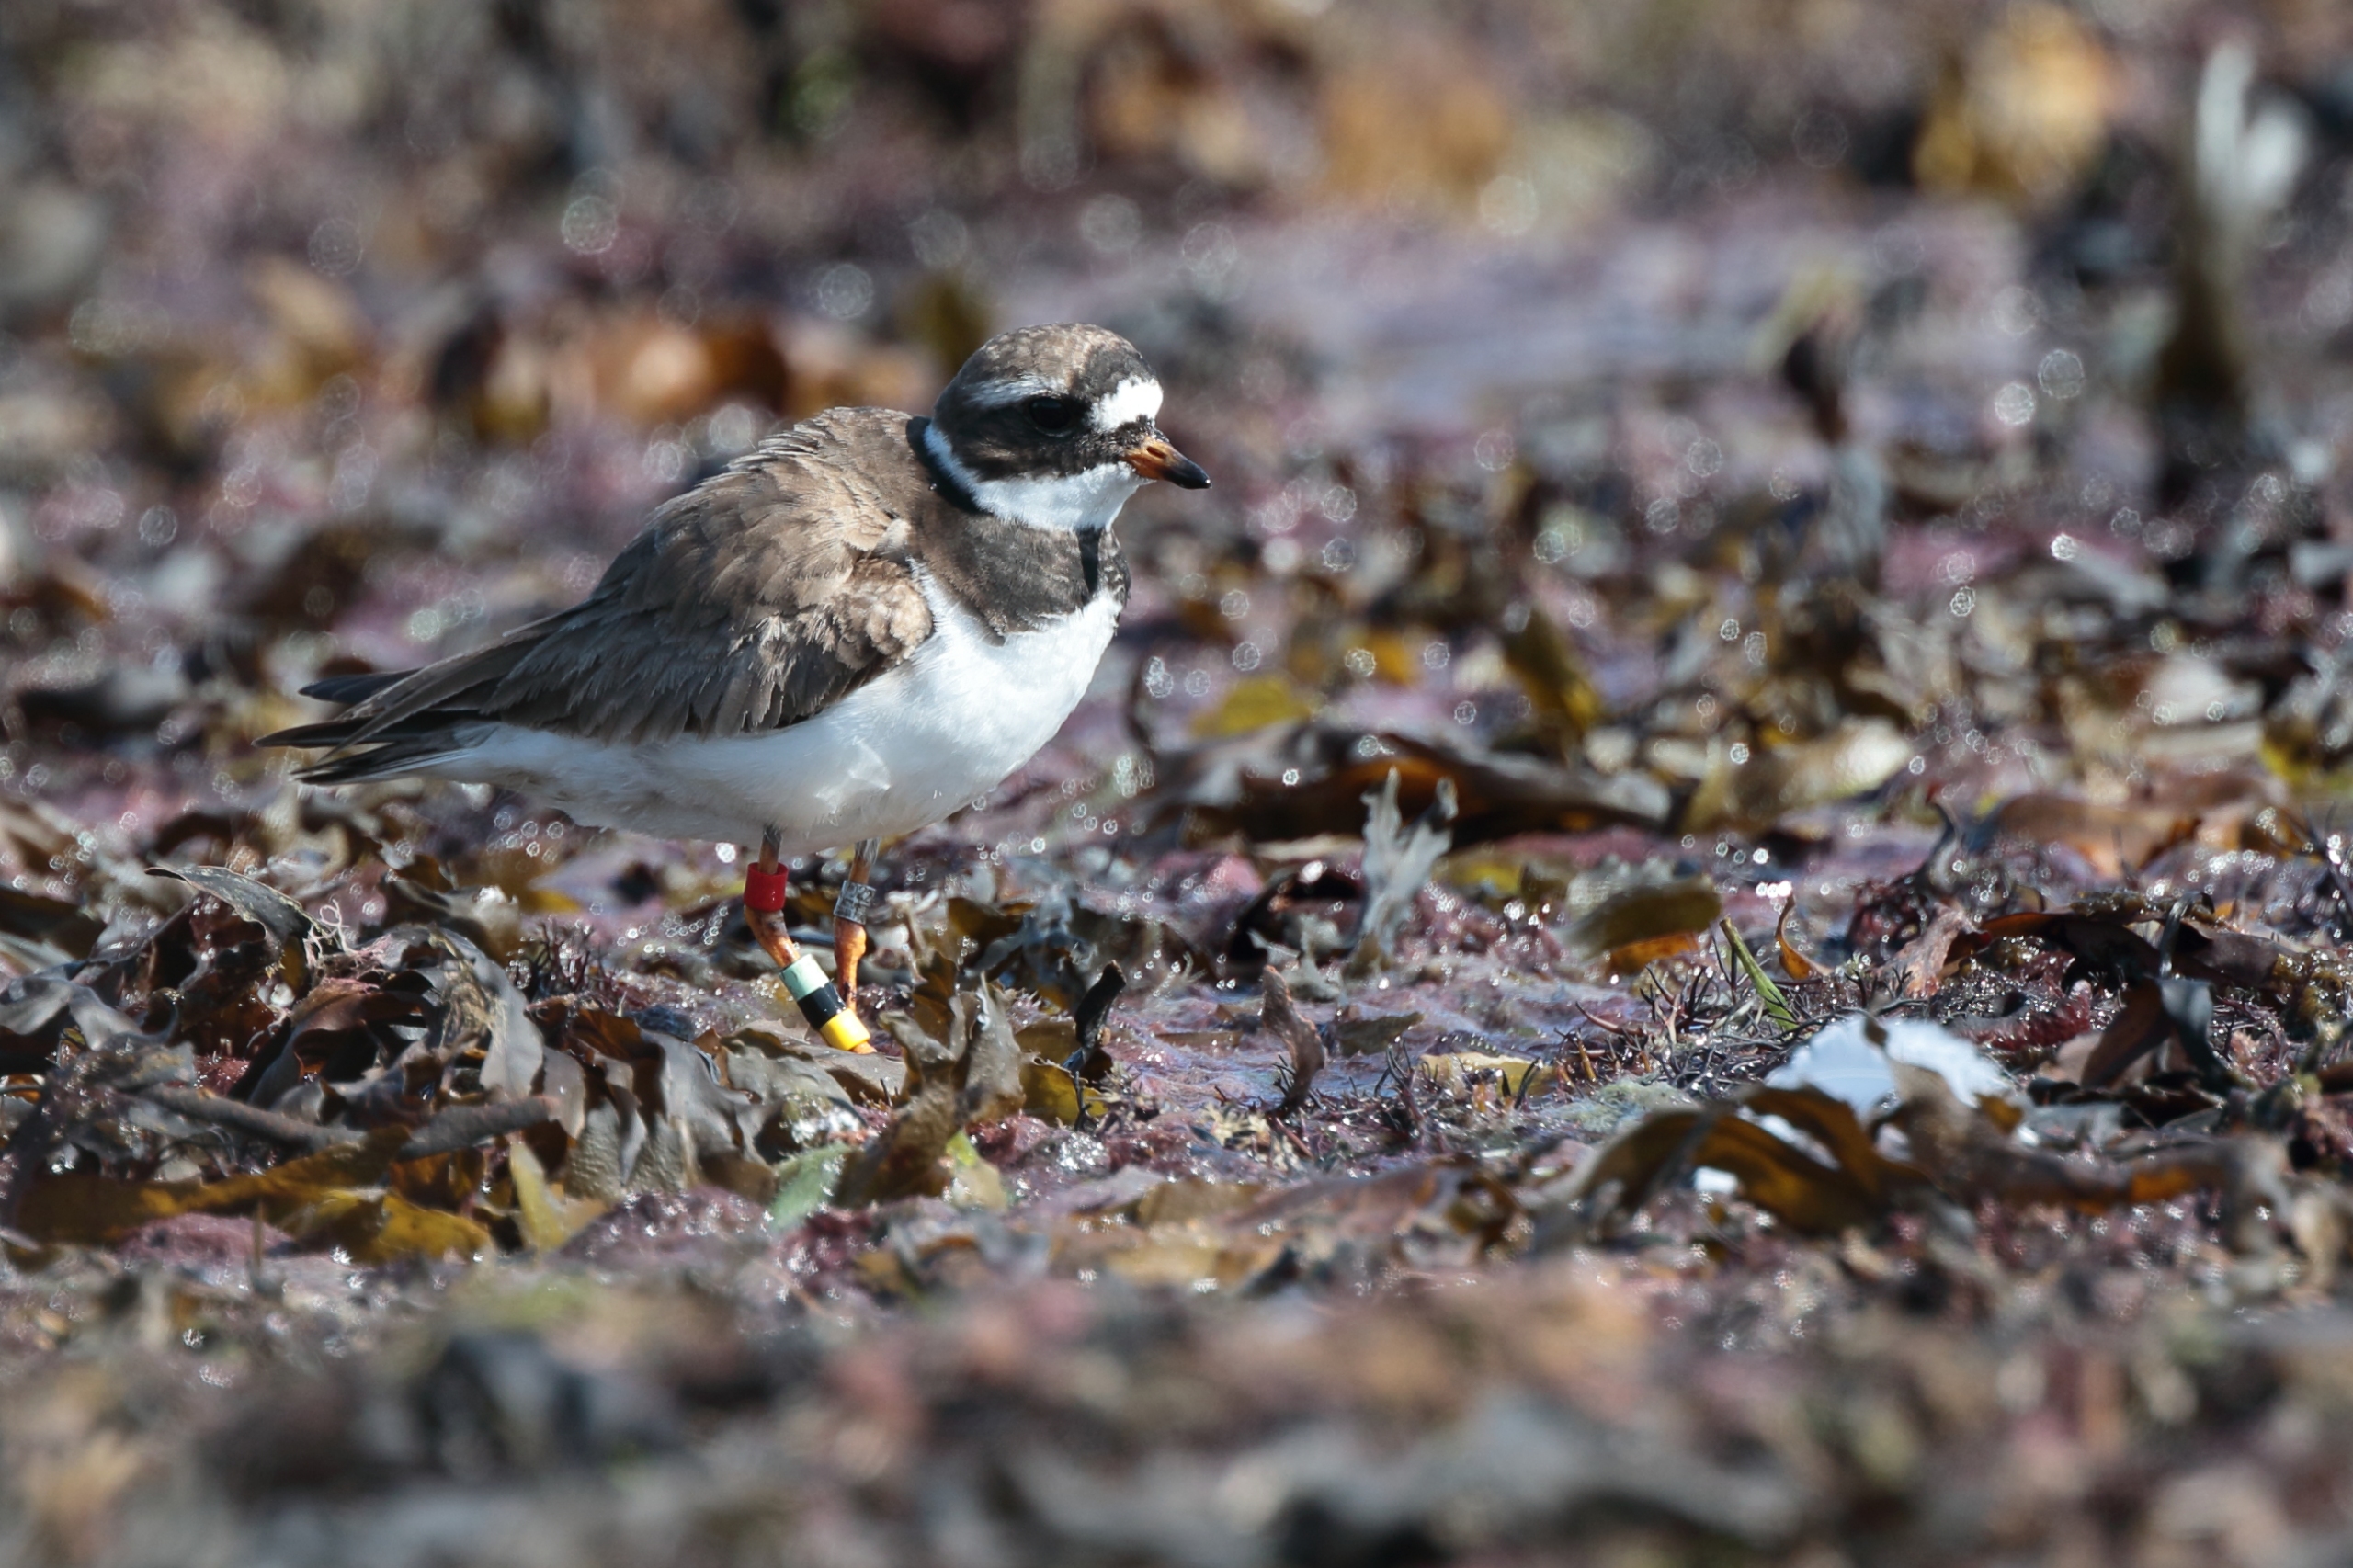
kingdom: Animalia
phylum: Chordata
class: Aves
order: Charadriiformes
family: Charadriidae
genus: Charadrius
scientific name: Charadrius hiaticula
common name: Stor præstekrave
